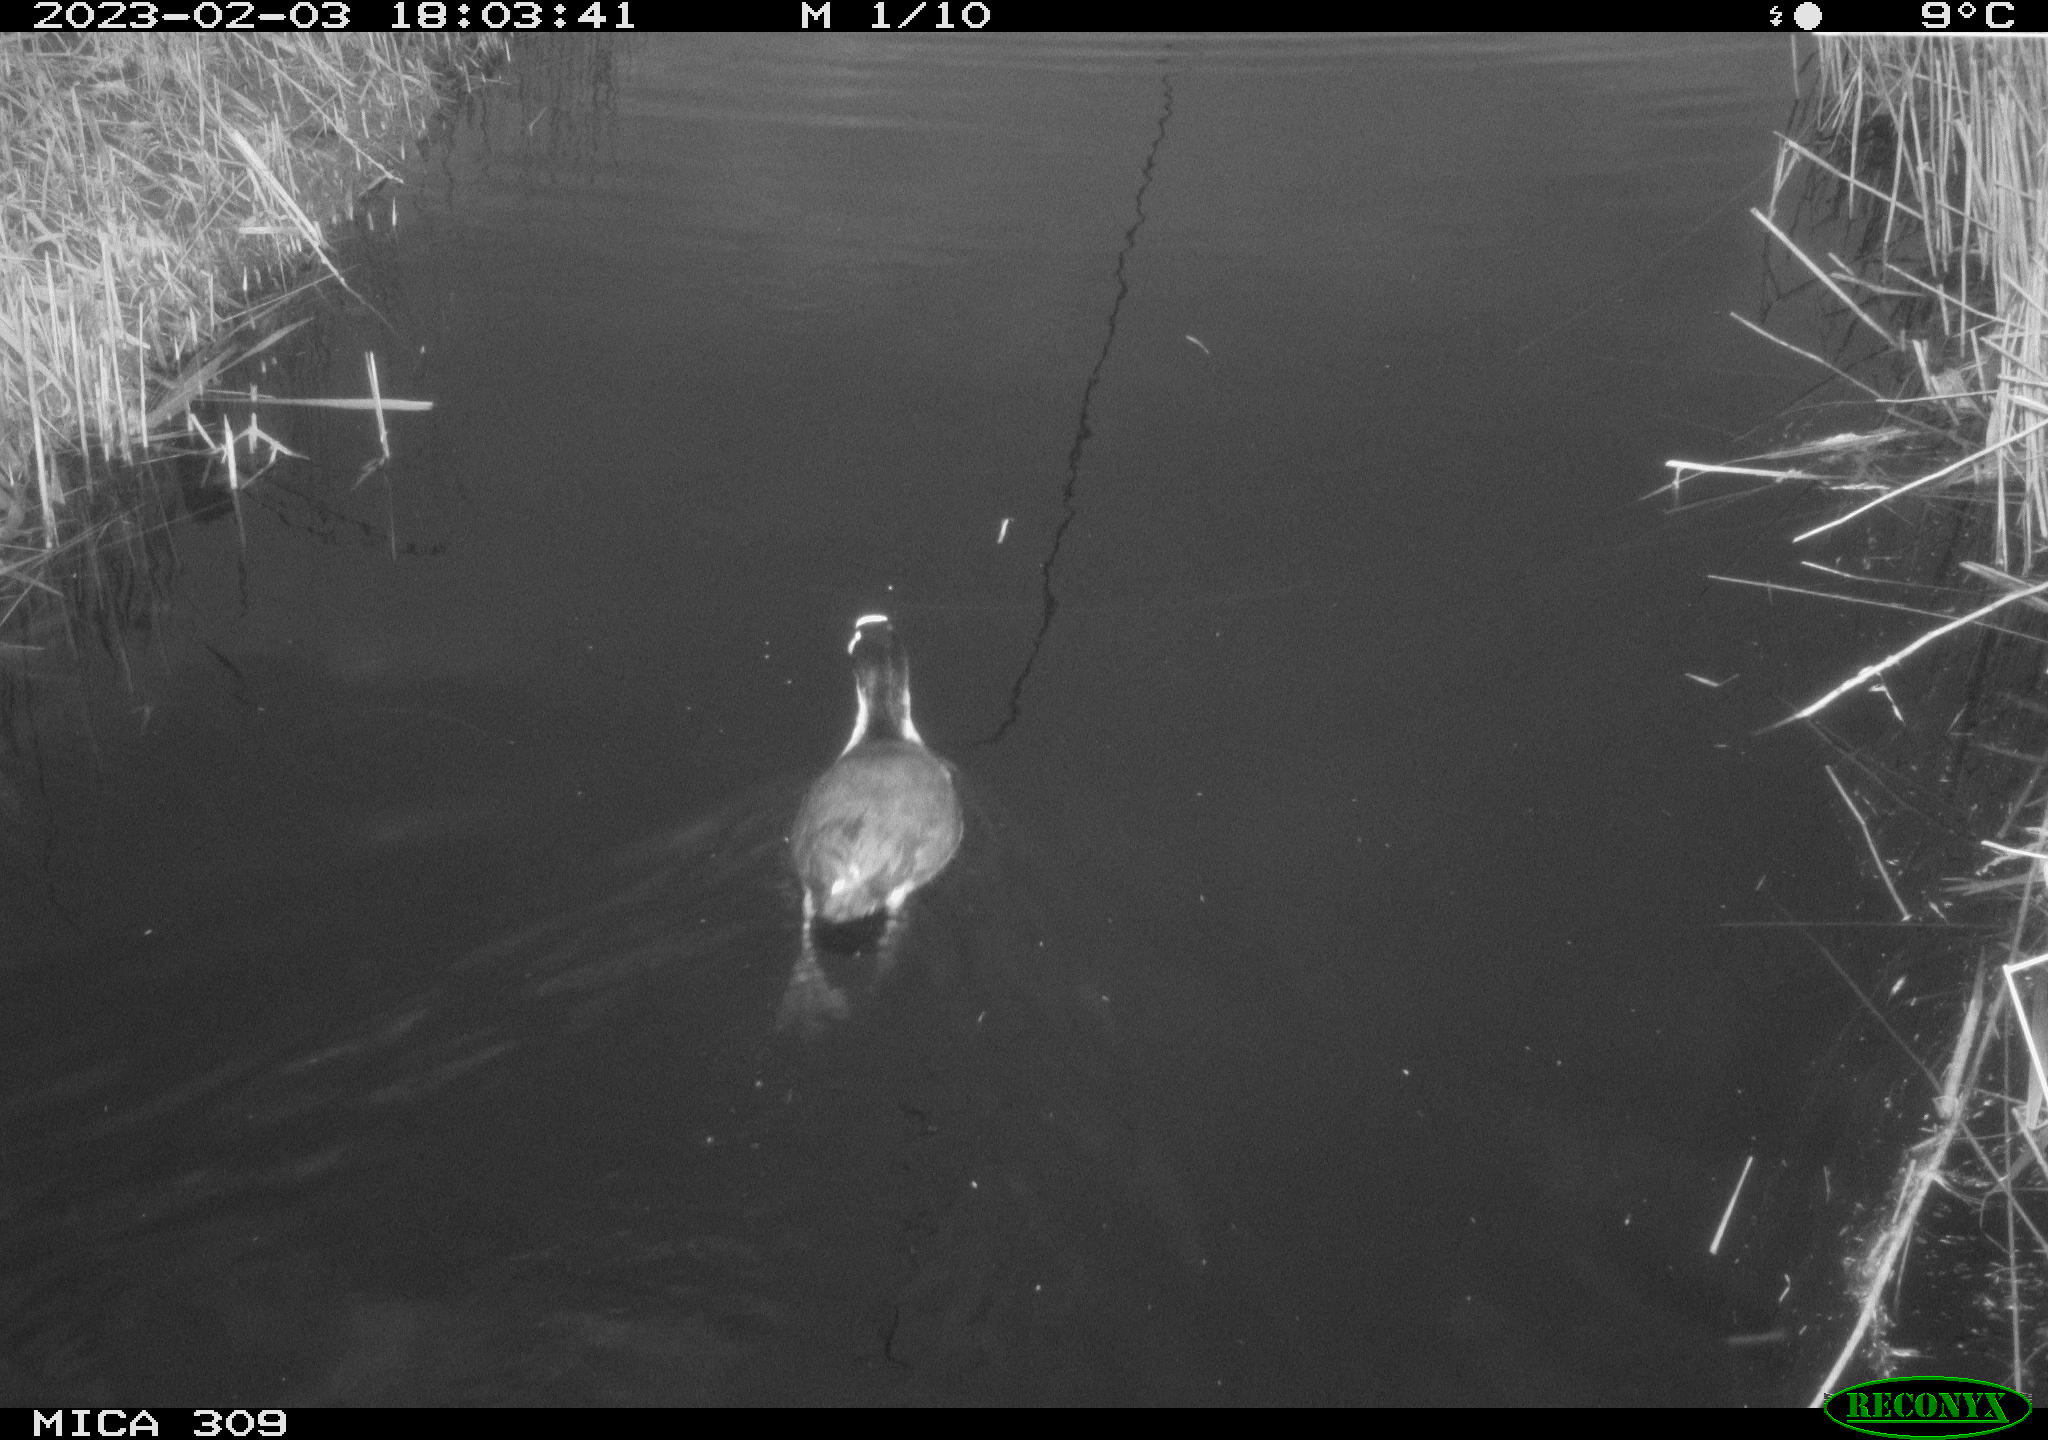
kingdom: Animalia
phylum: Chordata
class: Aves
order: Gruiformes
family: Rallidae
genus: Fulica
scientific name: Fulica atra
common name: Eurasian coot
